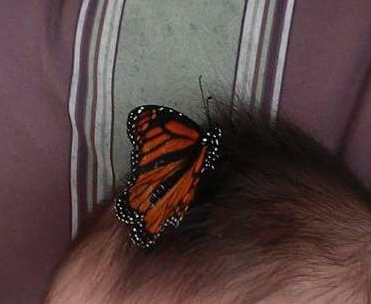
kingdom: Animalia
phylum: Arthropoda
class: Insecta
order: Lepidoptera
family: Nymphalidae
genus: Danaus
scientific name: Danaus plexippus
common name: Monarch
